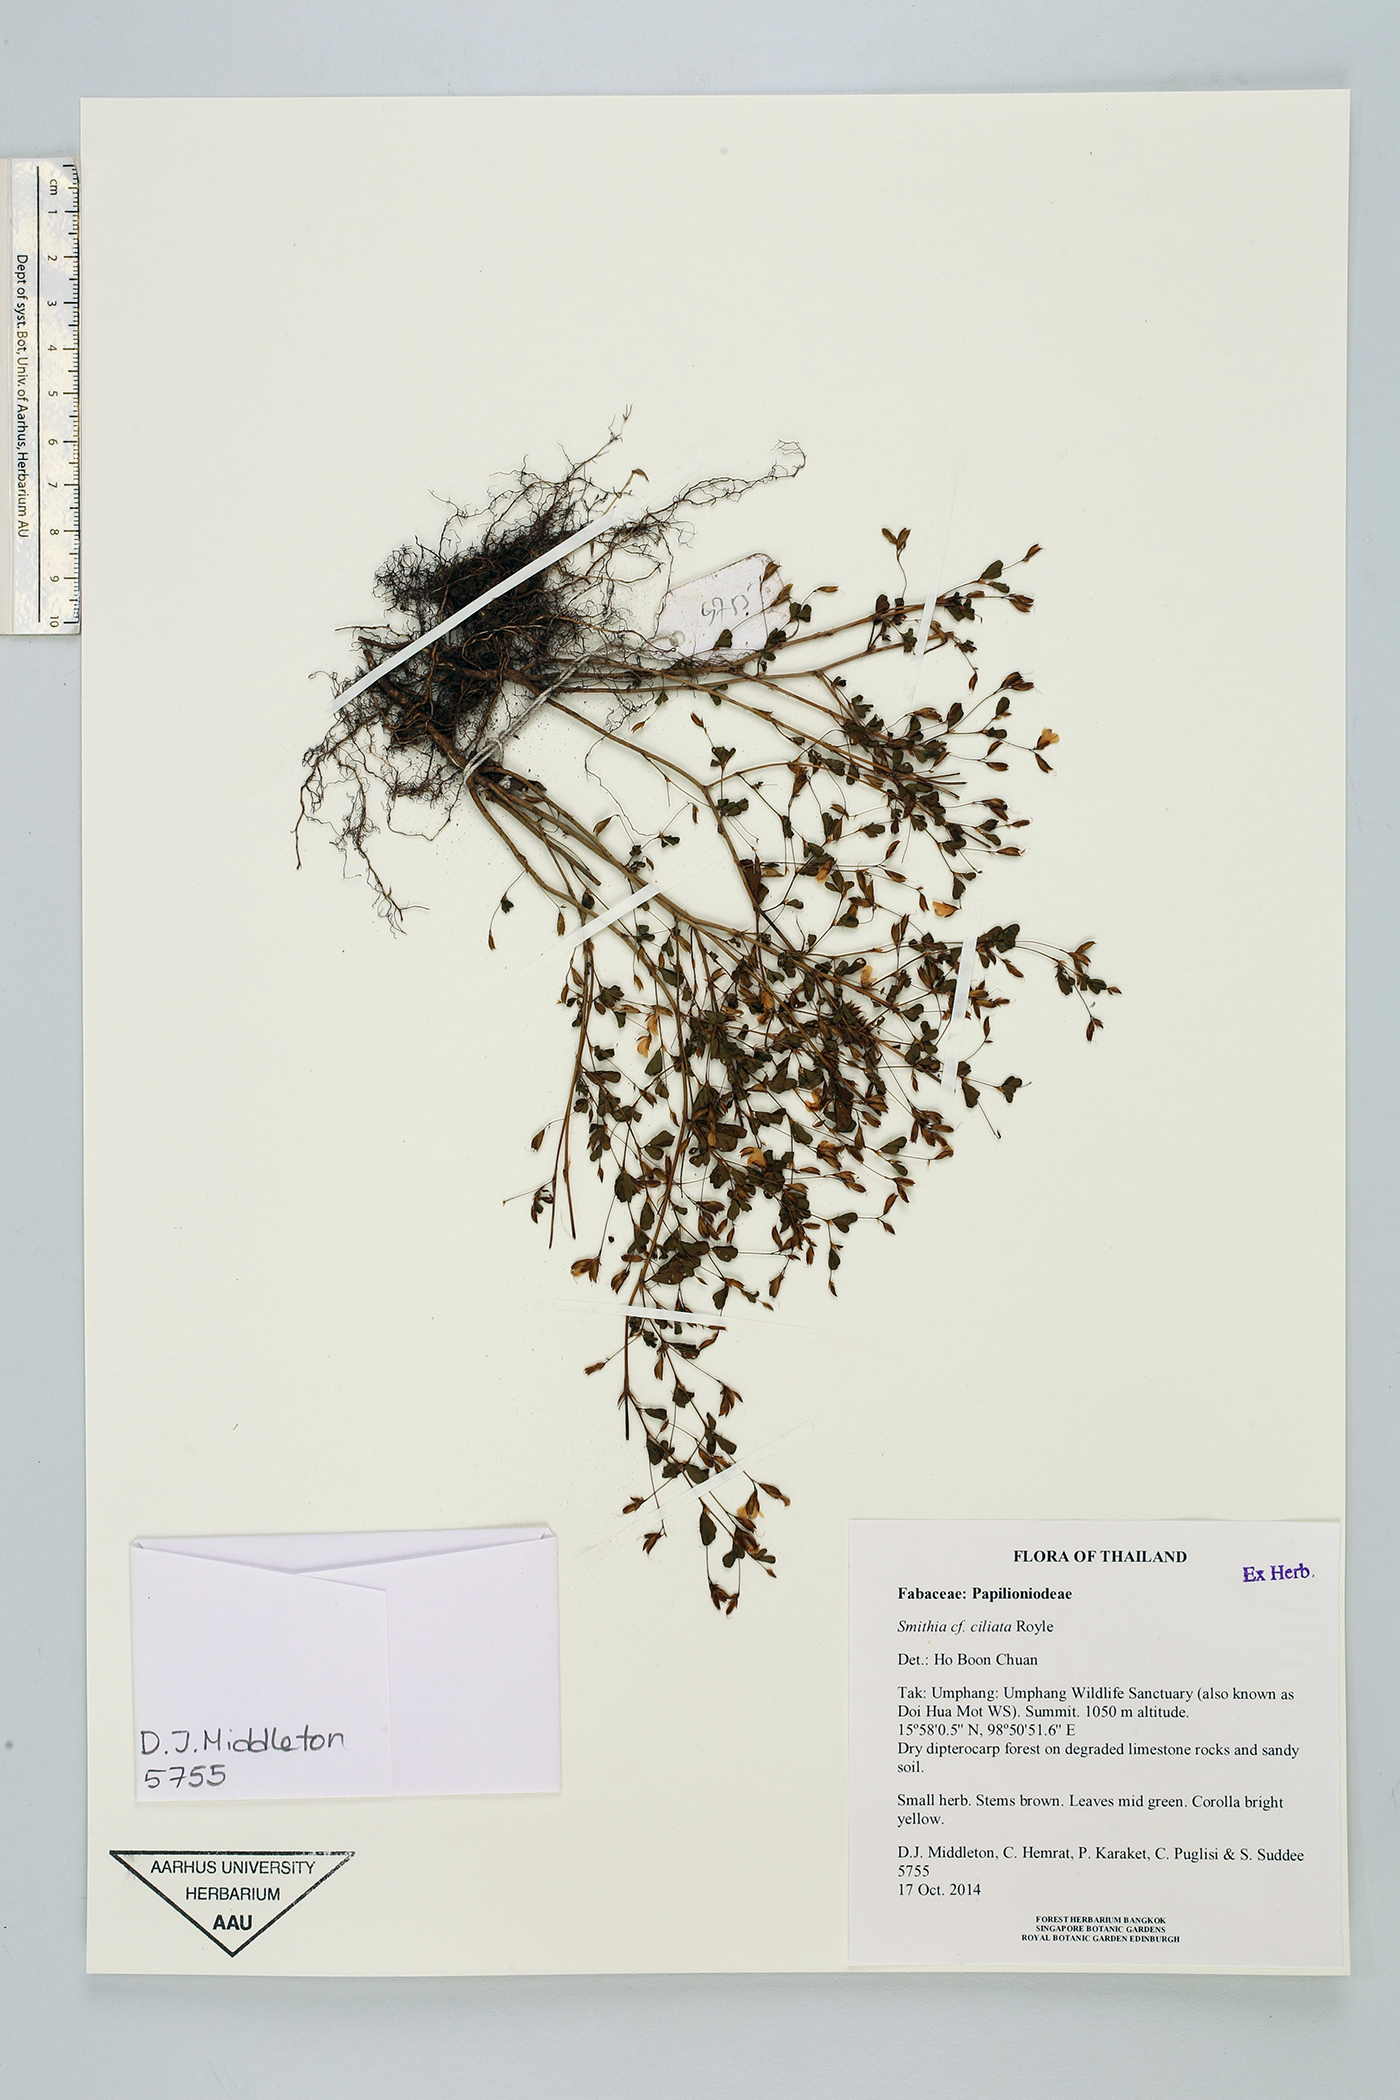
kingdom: Plantae
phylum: Tracheophyta
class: Magnoliopsida
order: Fabales
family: Fabaceae
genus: Smithia
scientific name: Smithia ciliata
